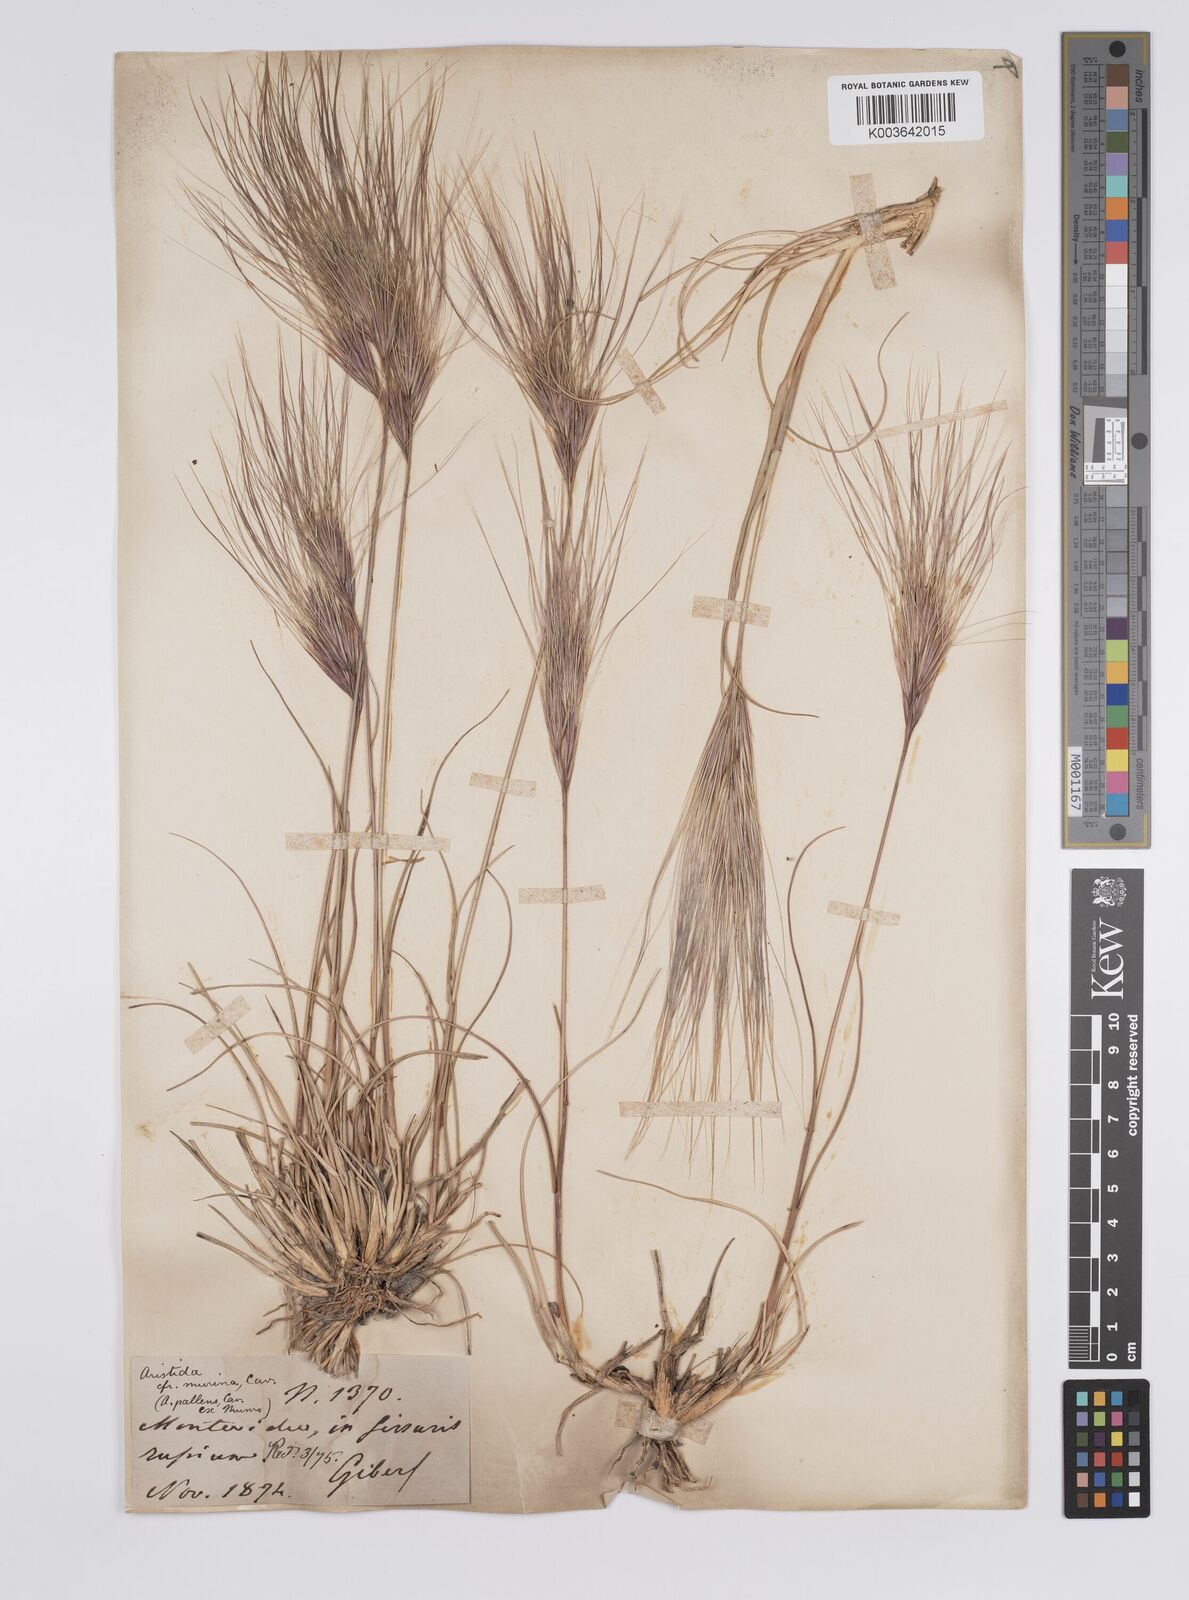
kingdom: Plantae
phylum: Tracheophyta
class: Liliopsida
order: Poales
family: Poaceae
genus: Aristida
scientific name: Aristida murina
